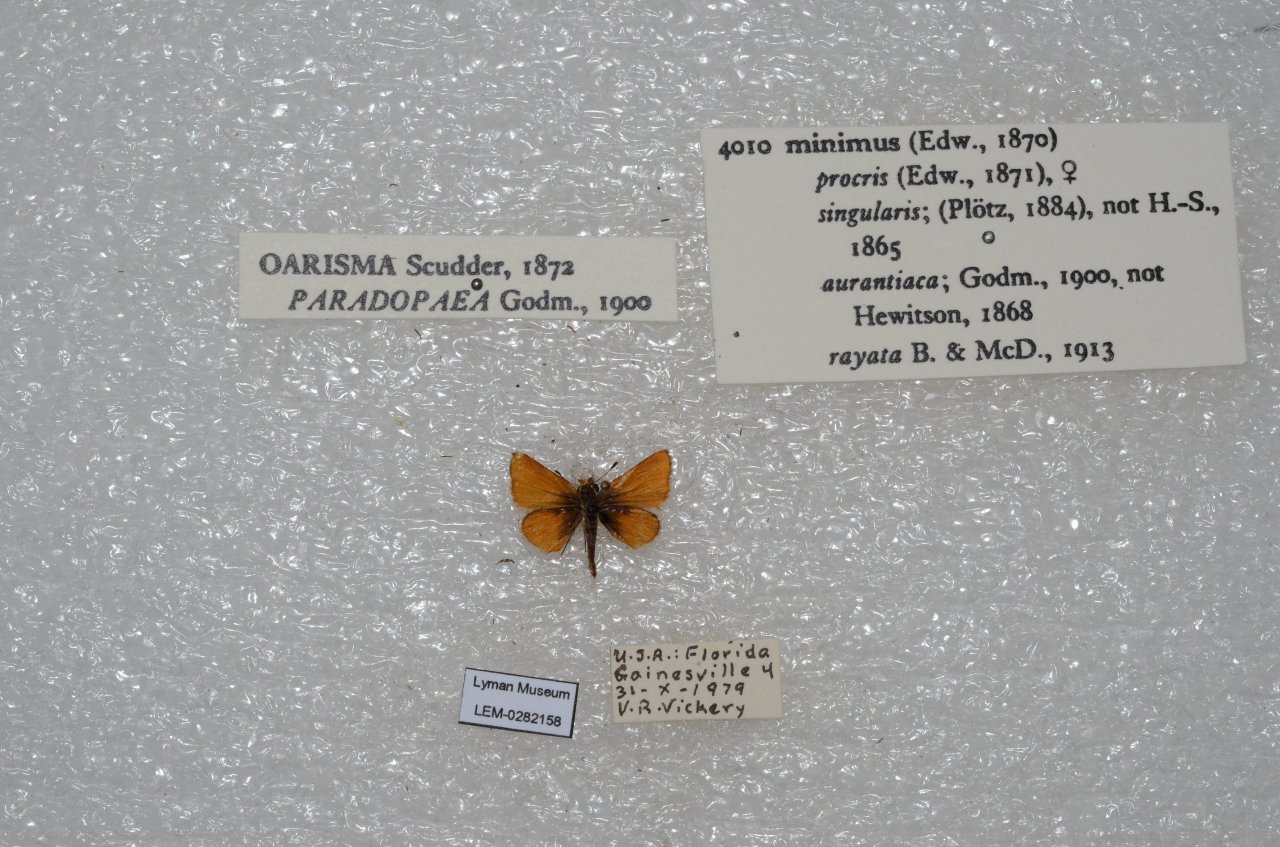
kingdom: Animalia
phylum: Arthropoda
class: Insecta
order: Lepidoptera
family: Hesperiidae
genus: Copaeodes
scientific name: Copaeodes minima
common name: Southern Skipperling
